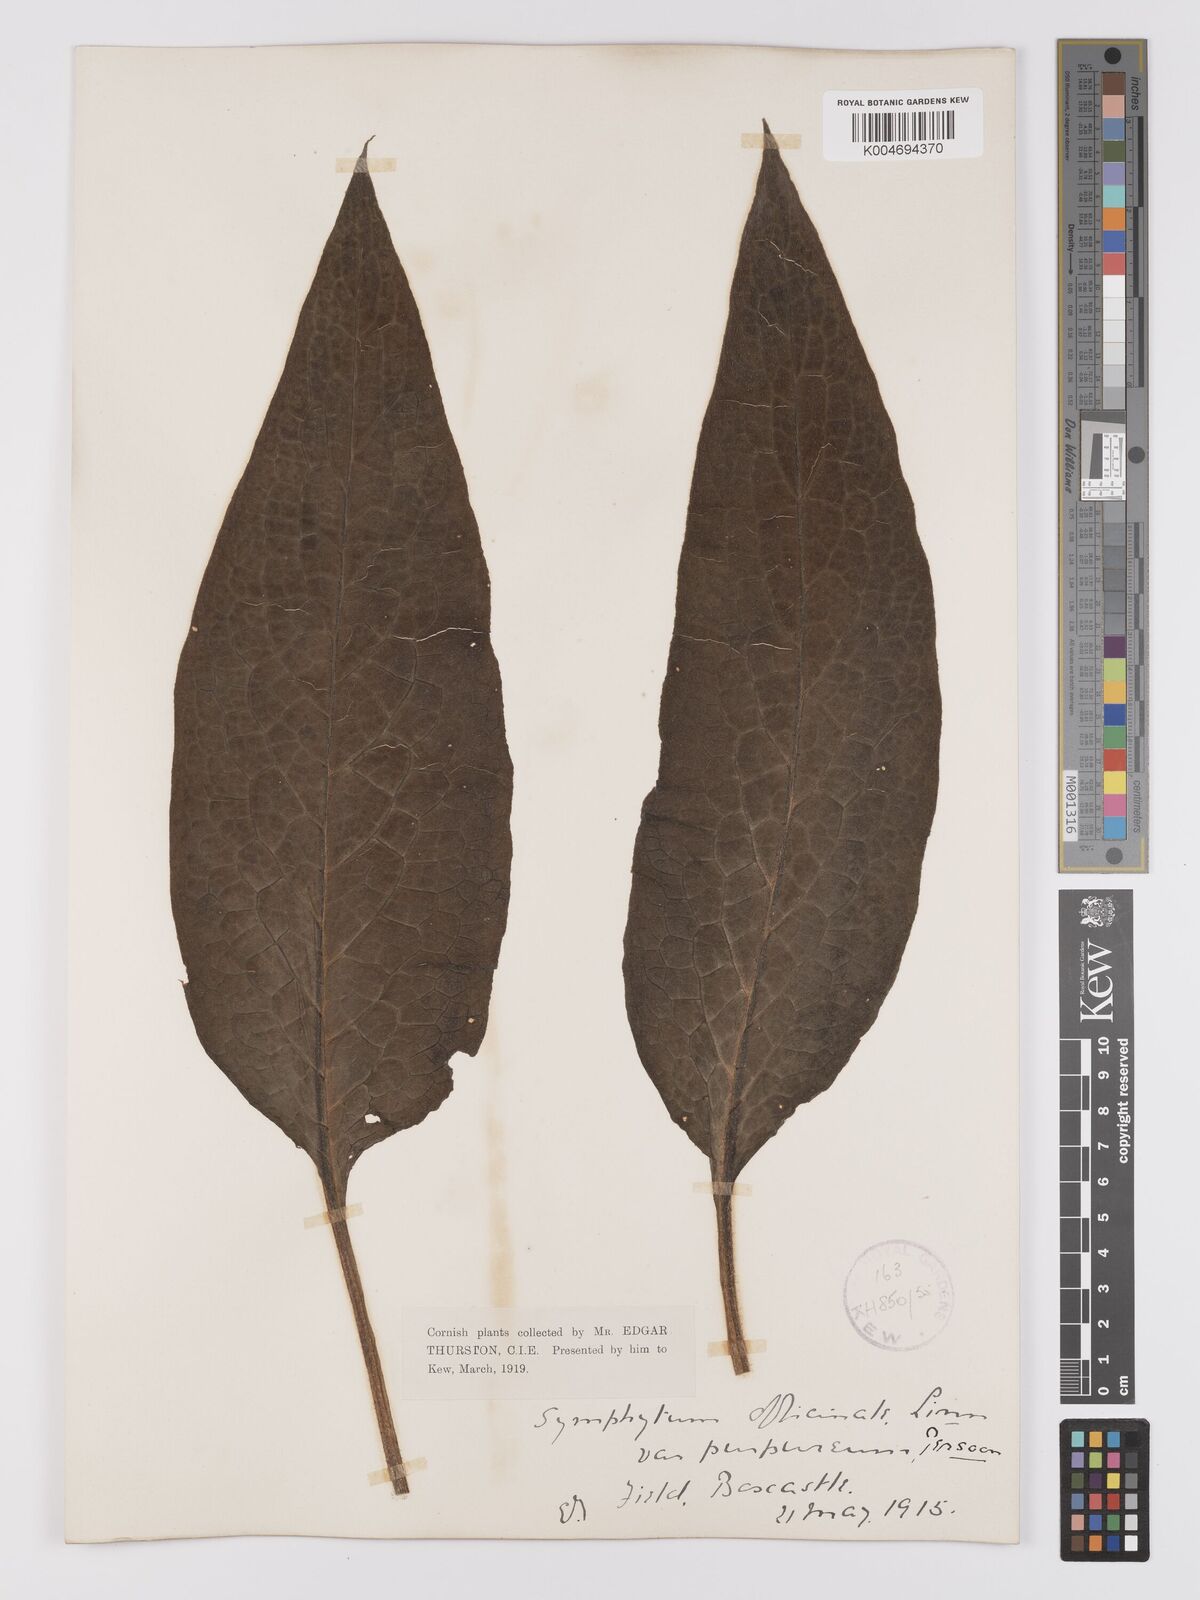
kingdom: Plantae
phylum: Tracheophyta
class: Magnoliopsida
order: Boraginales
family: Boraginaceae
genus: Symphytum
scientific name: Symphytum officinale
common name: Common comfrey
